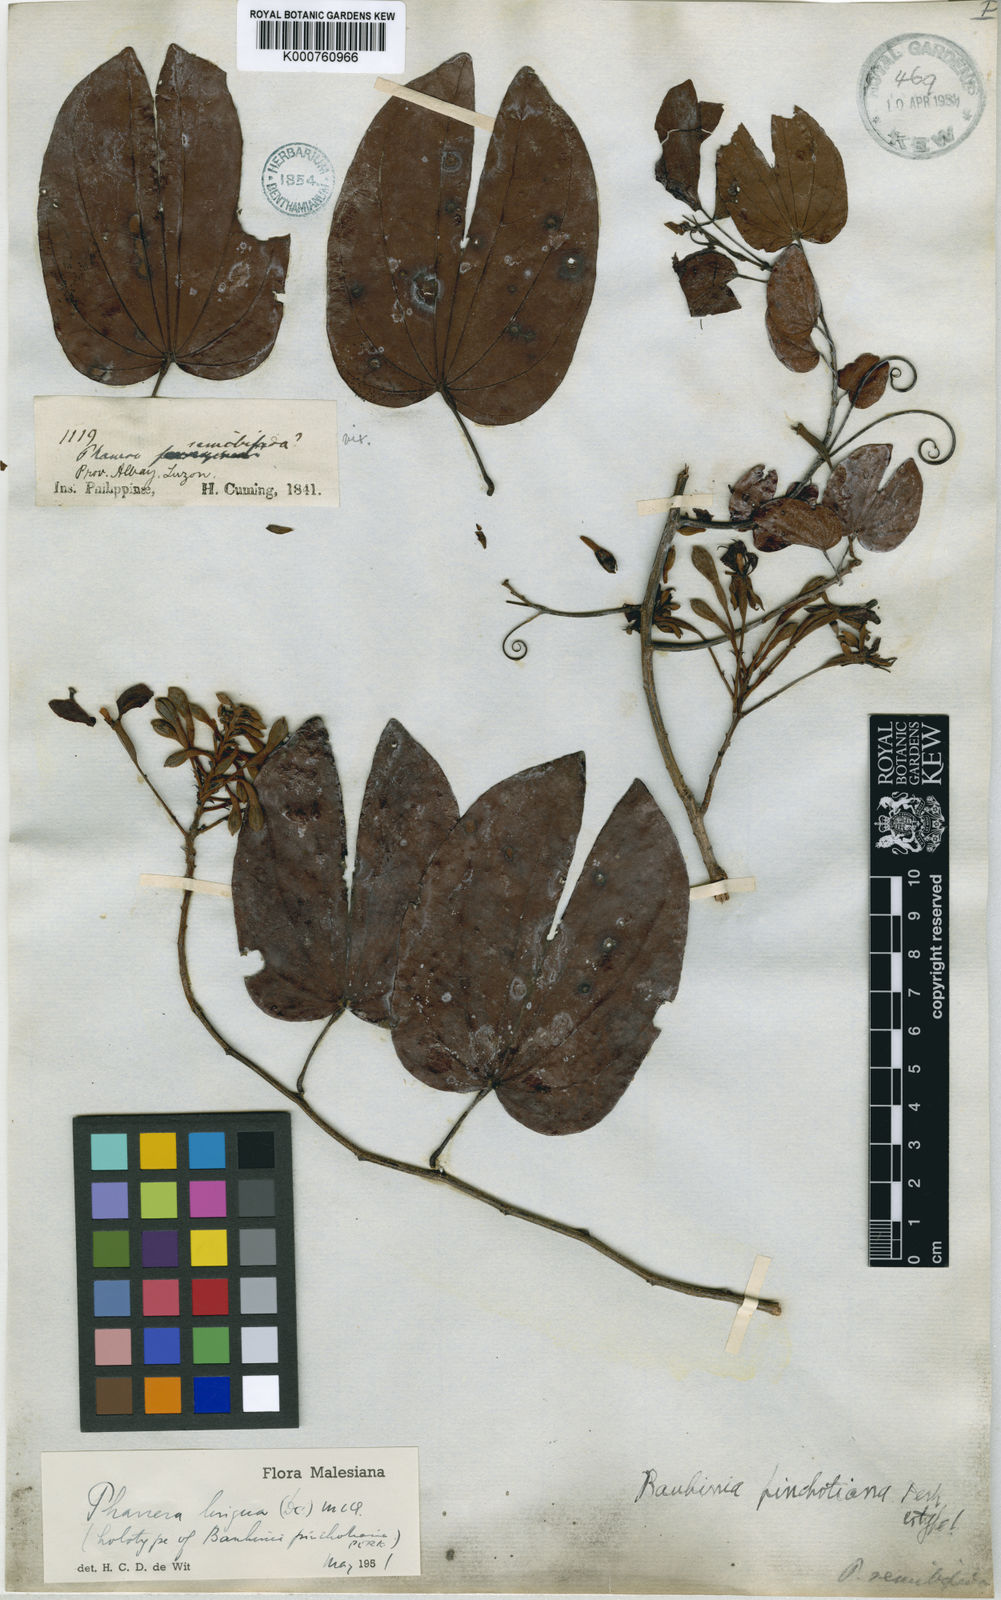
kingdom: Plantae
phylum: Tracheophyta
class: Magnoliopsida
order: Fabales
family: Fabaceae
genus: Phanera
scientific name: Phanera lingua
